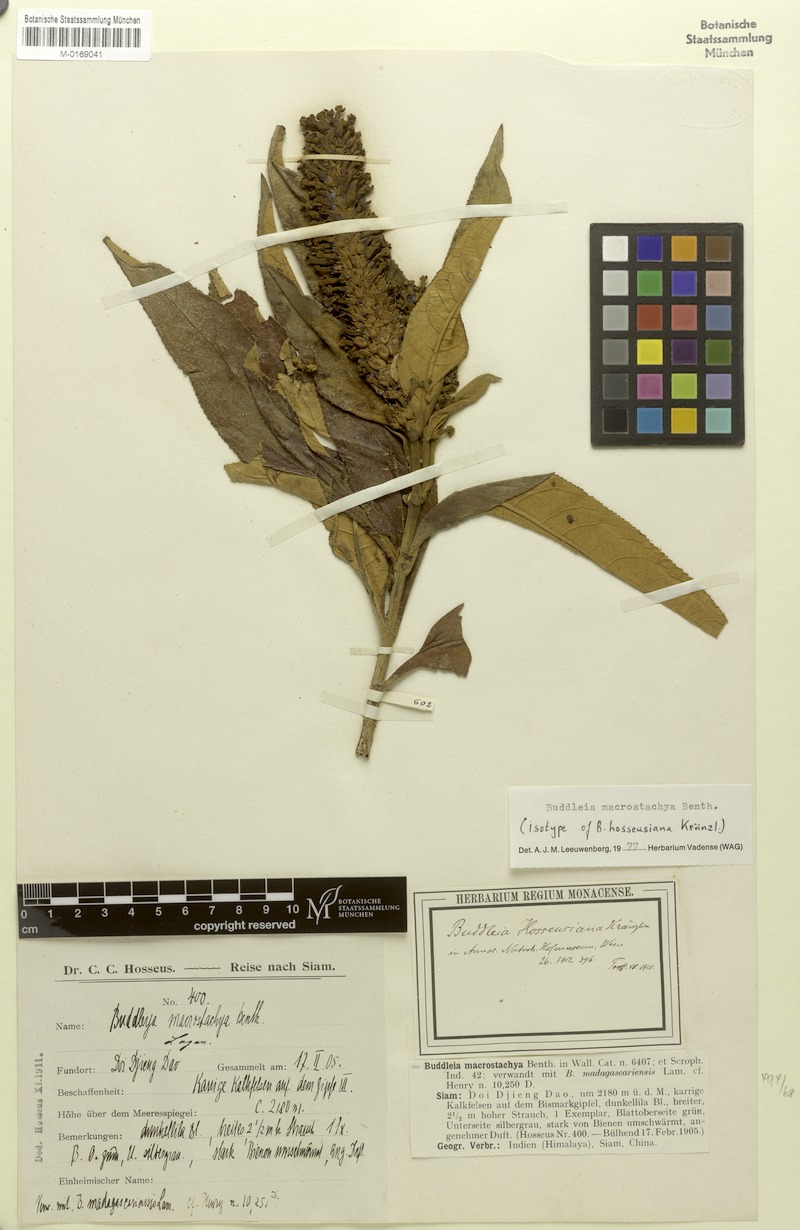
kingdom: Plantae
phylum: Tracheophyta
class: Magnoliopsida
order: Lamiales
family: Scrophulariaceae
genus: Buddleja
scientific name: Buddleja macrostachya
